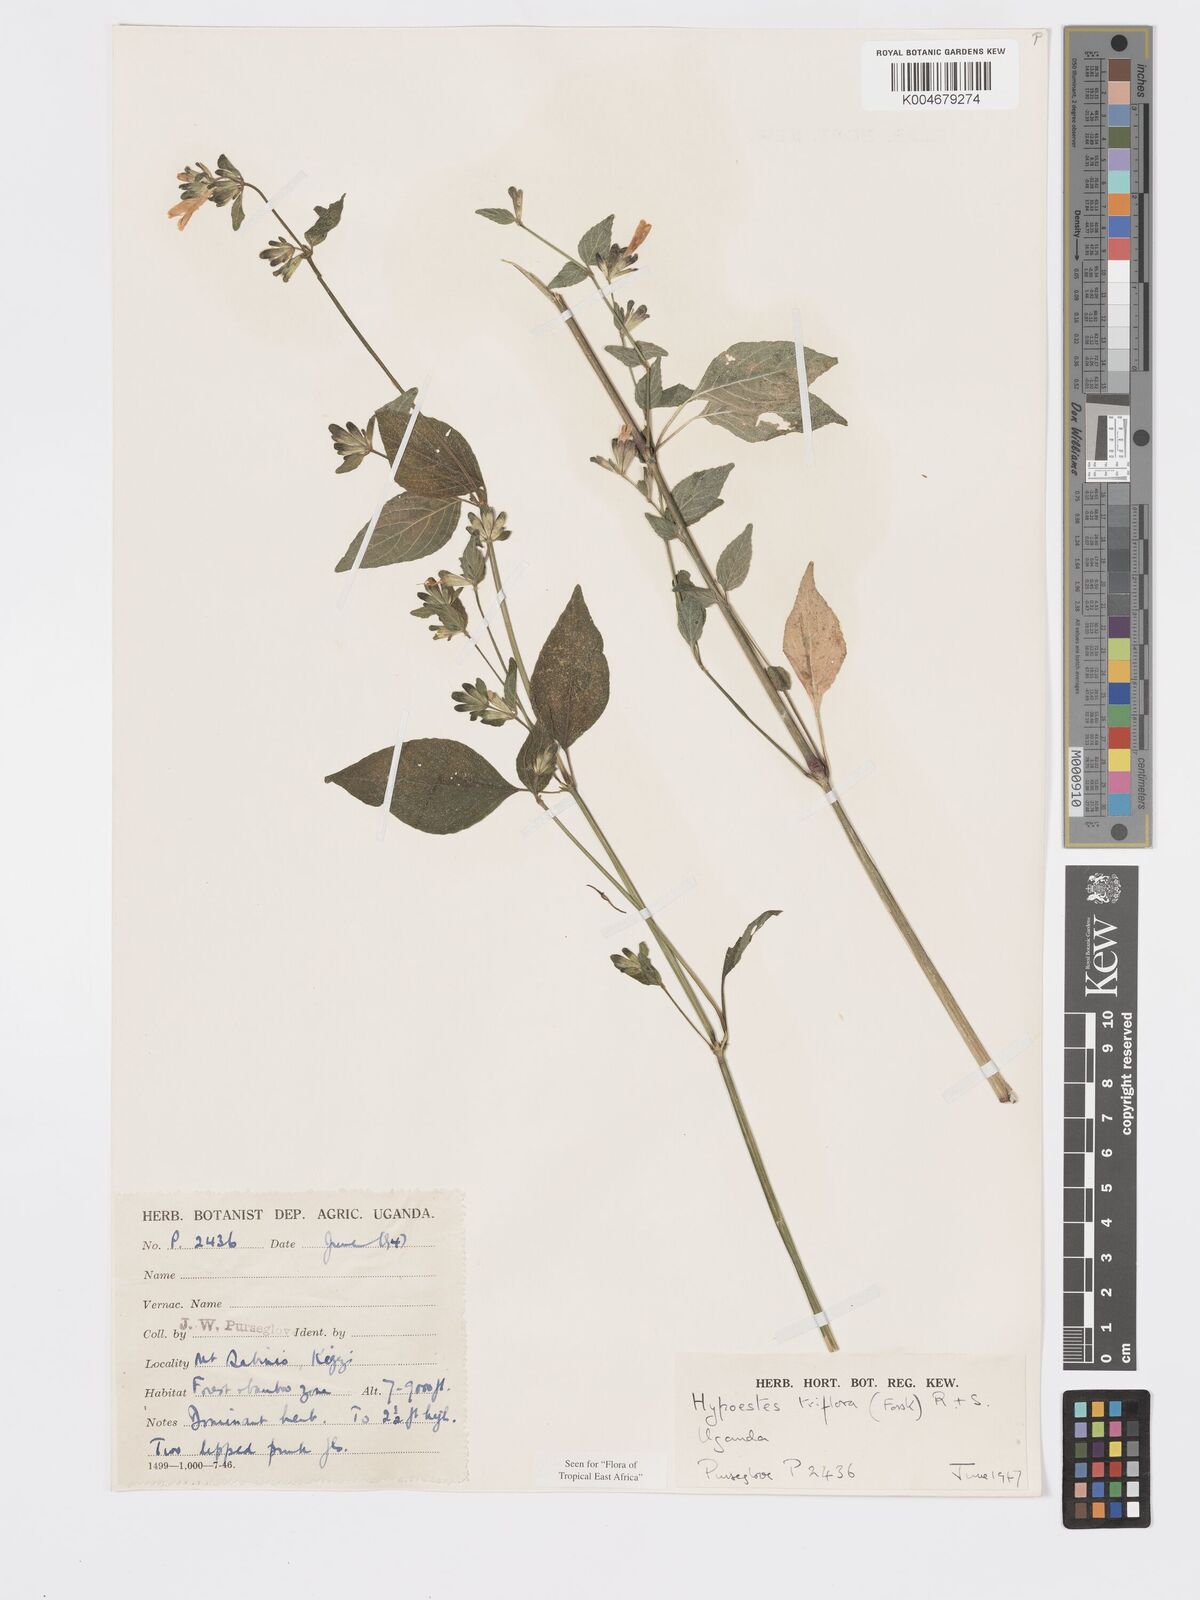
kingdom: Plantae
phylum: Tracheophyta
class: Magnoliopsida
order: Lamiales
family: Acanthaceae
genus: Hypoestes
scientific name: Hypoestes triflora
